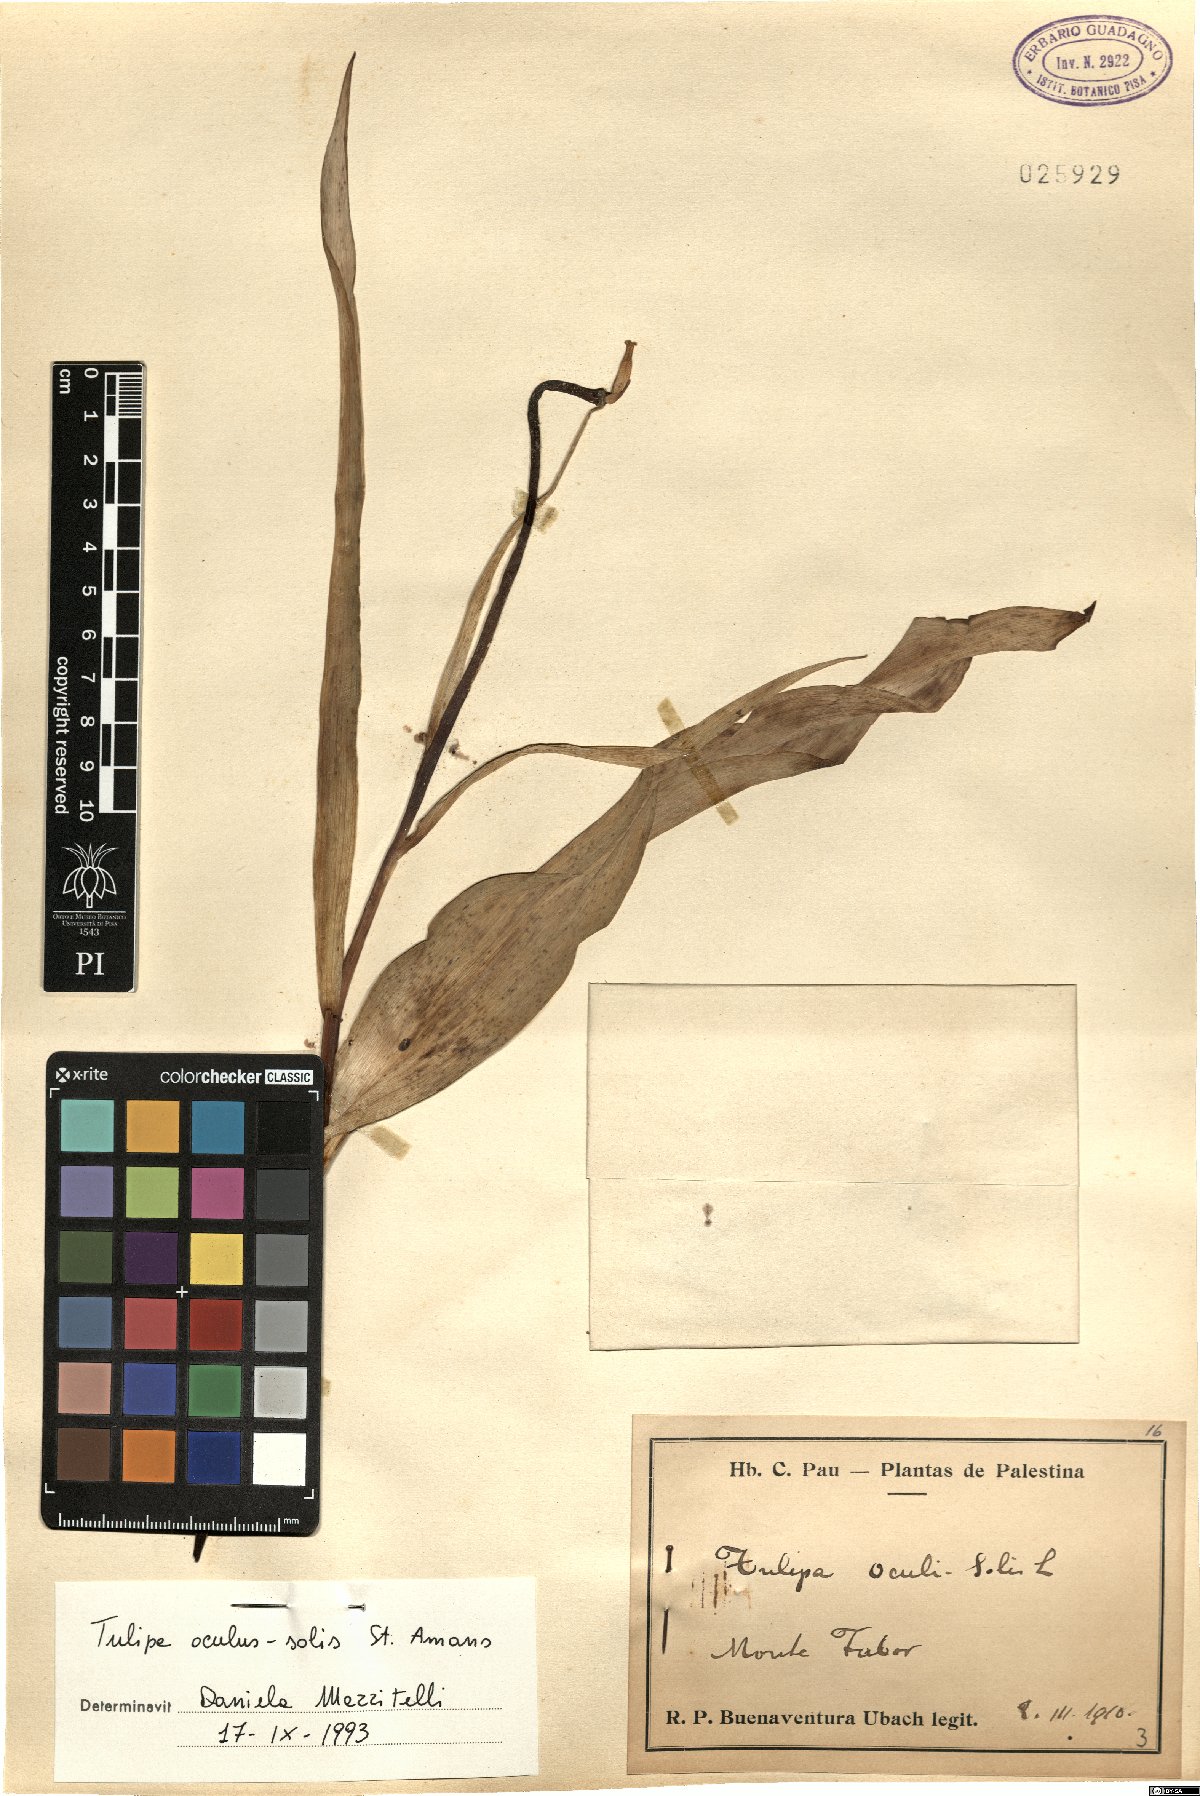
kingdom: Plantae
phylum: Tracheophyta
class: Liliopsida
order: Liliales
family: Liliaceae
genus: Tulipa
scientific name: Tulipa agenensis
